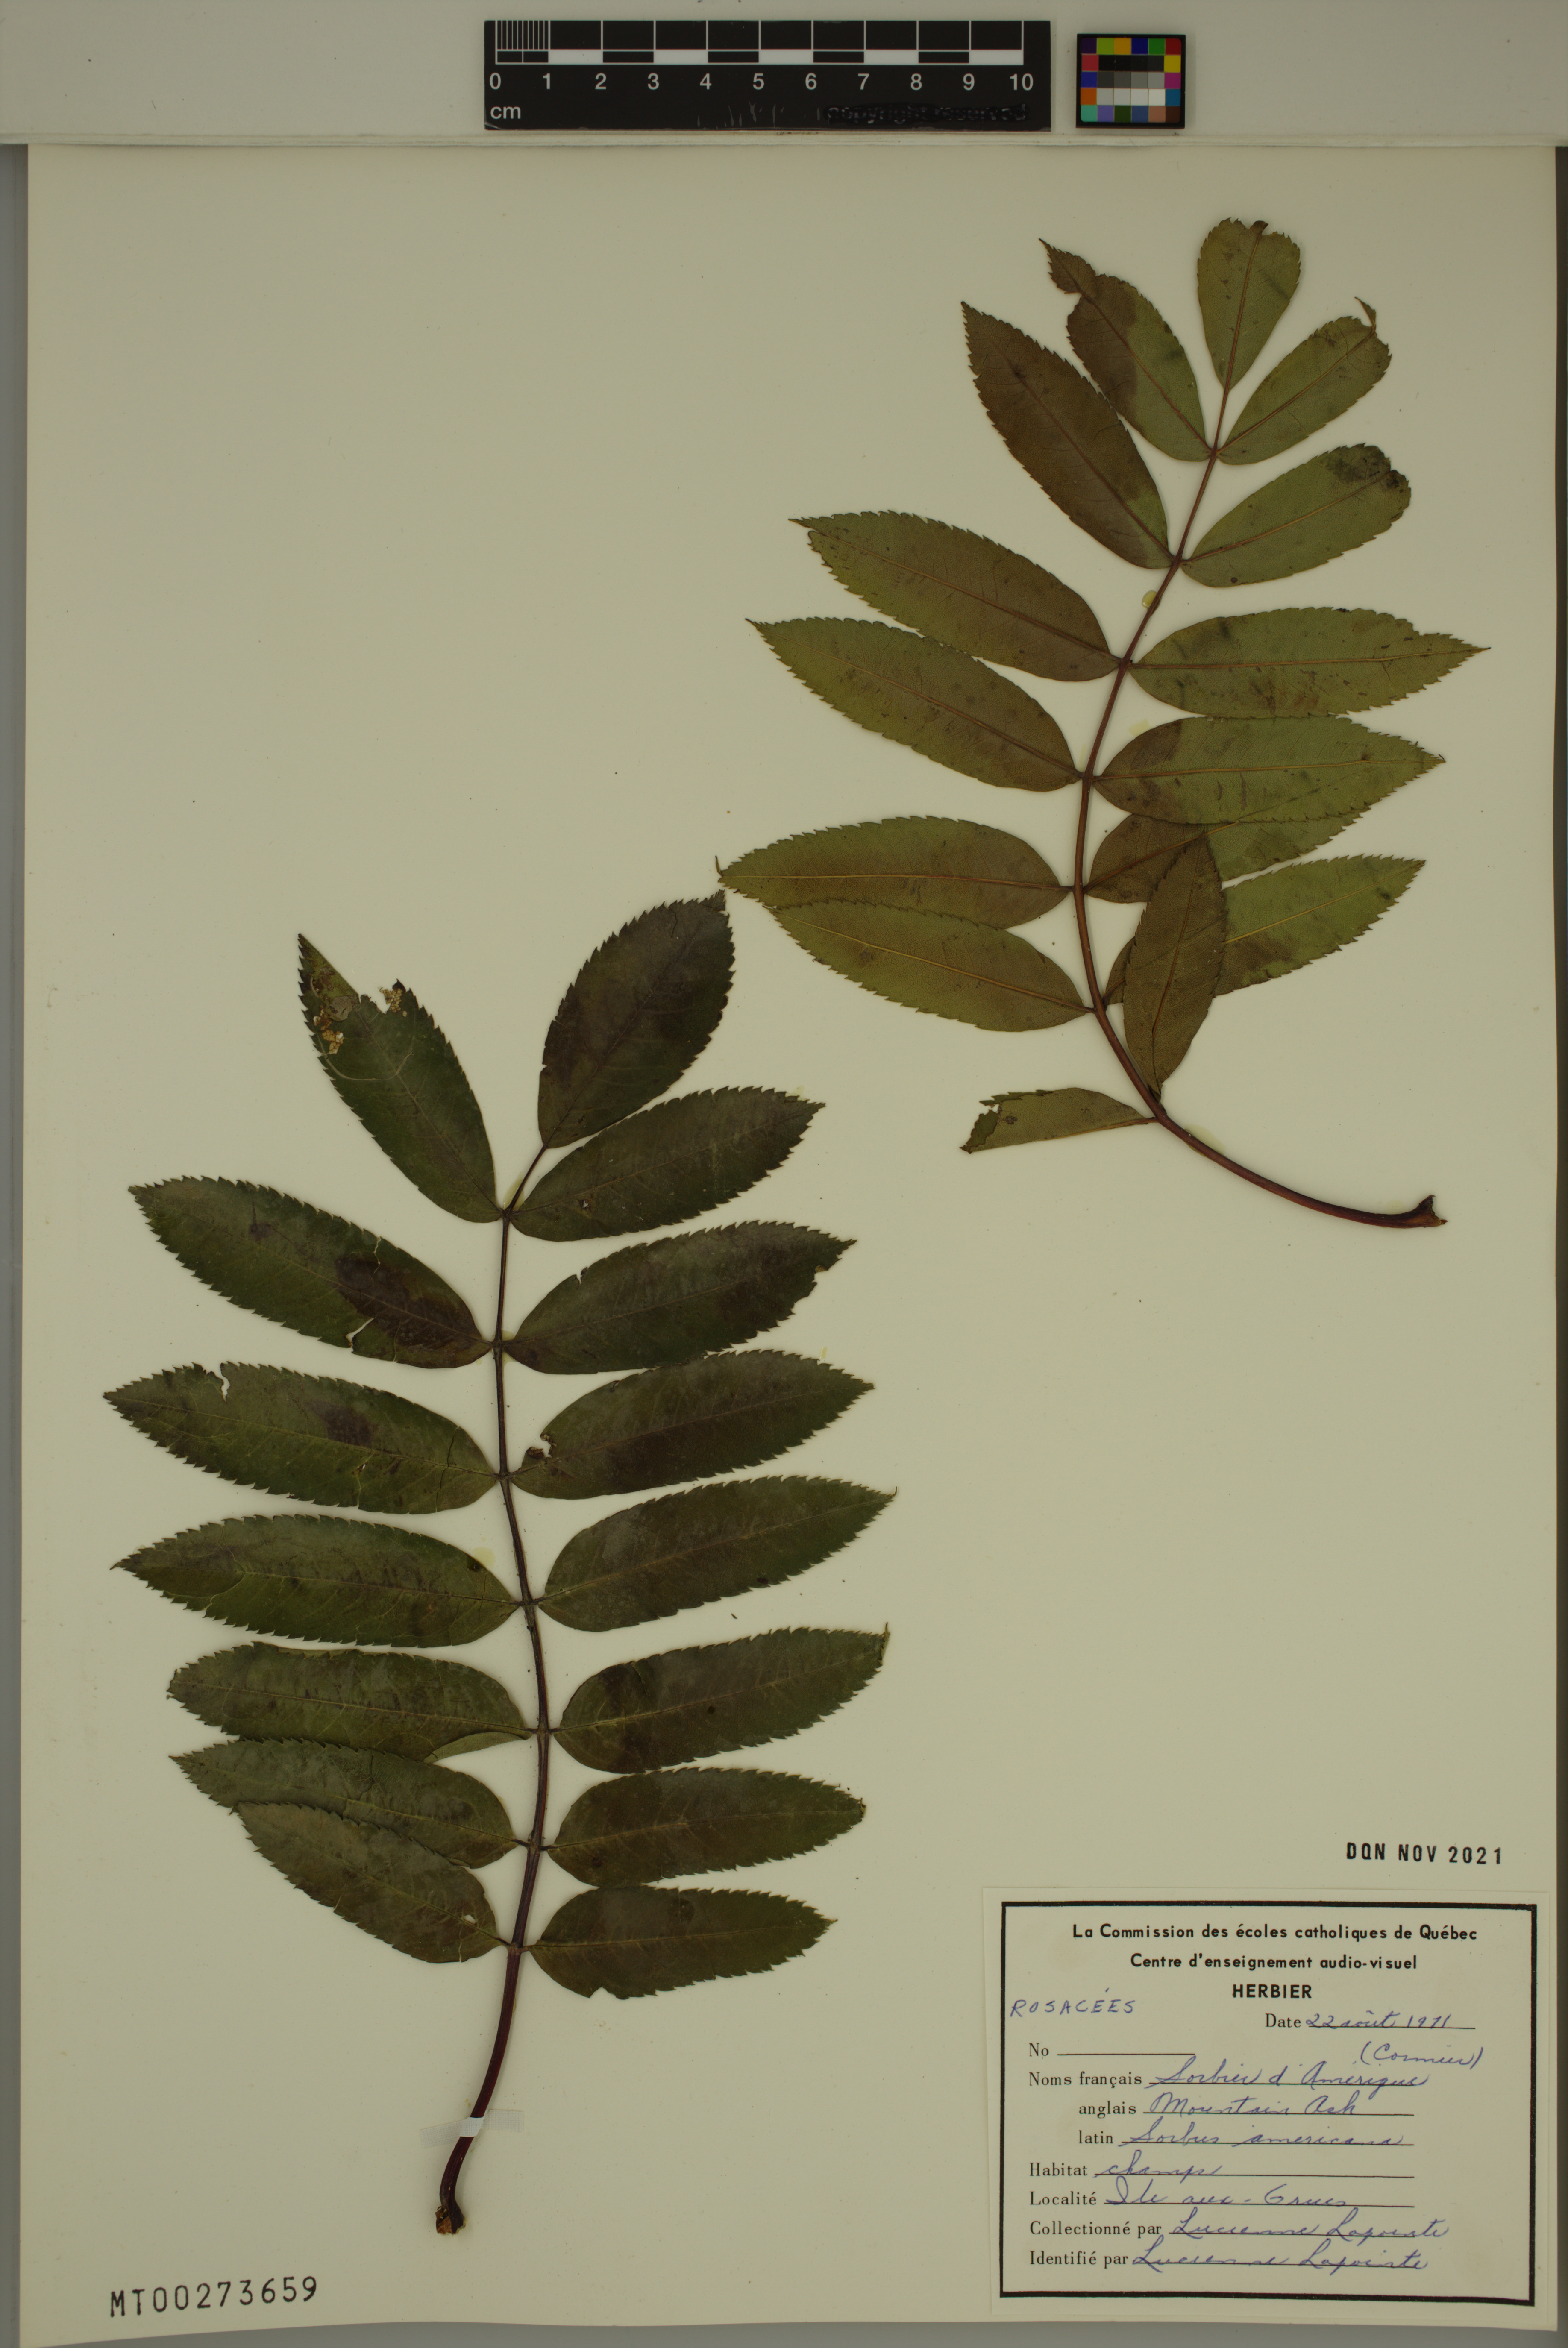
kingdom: Plantae
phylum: Tracheophyta
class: Magnoliopsida
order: Rosales
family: Rosaceae
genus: Sorbus
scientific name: Sorbus americana
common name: American mountain-ash
